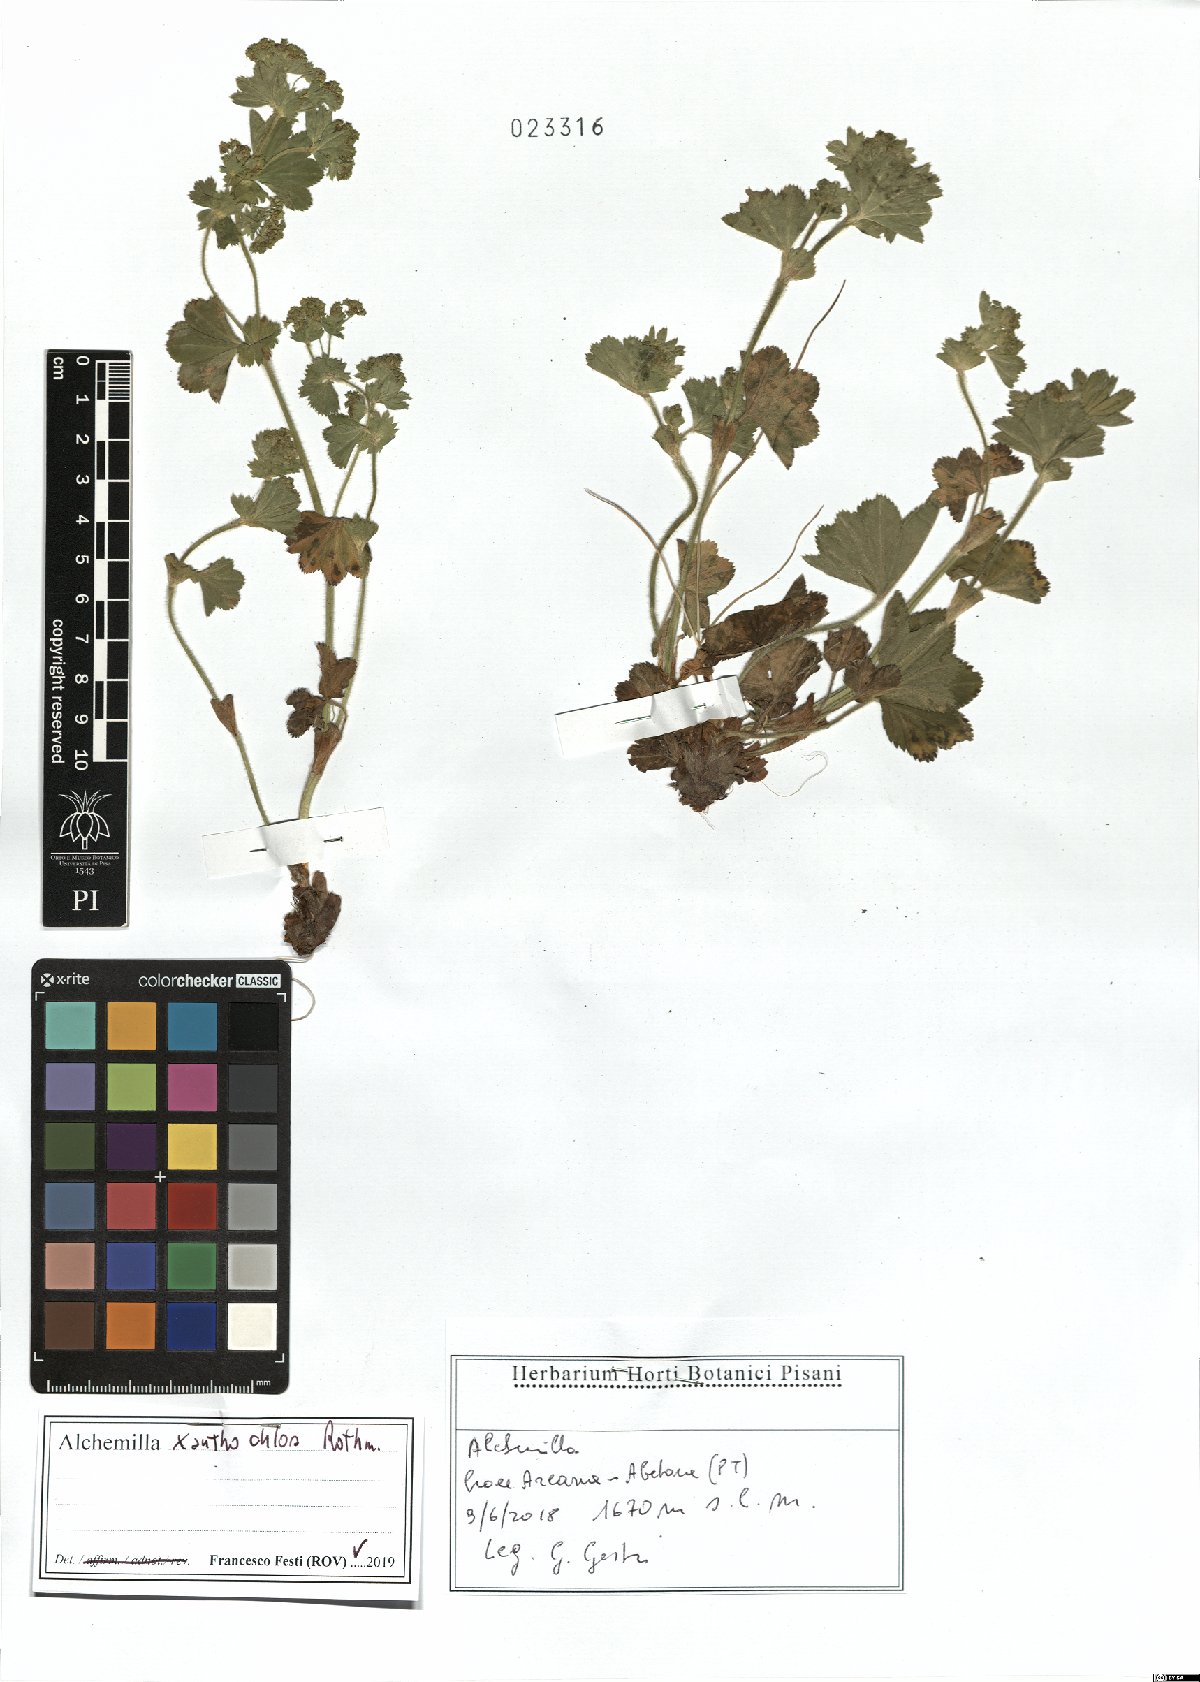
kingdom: Plantae
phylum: Tracheophyta
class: Magnoliopsida
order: Rosales
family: Rosaceae
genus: Alchemilla
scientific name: Alchemilla xanthochlora
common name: Intermediate lady's-mantle
